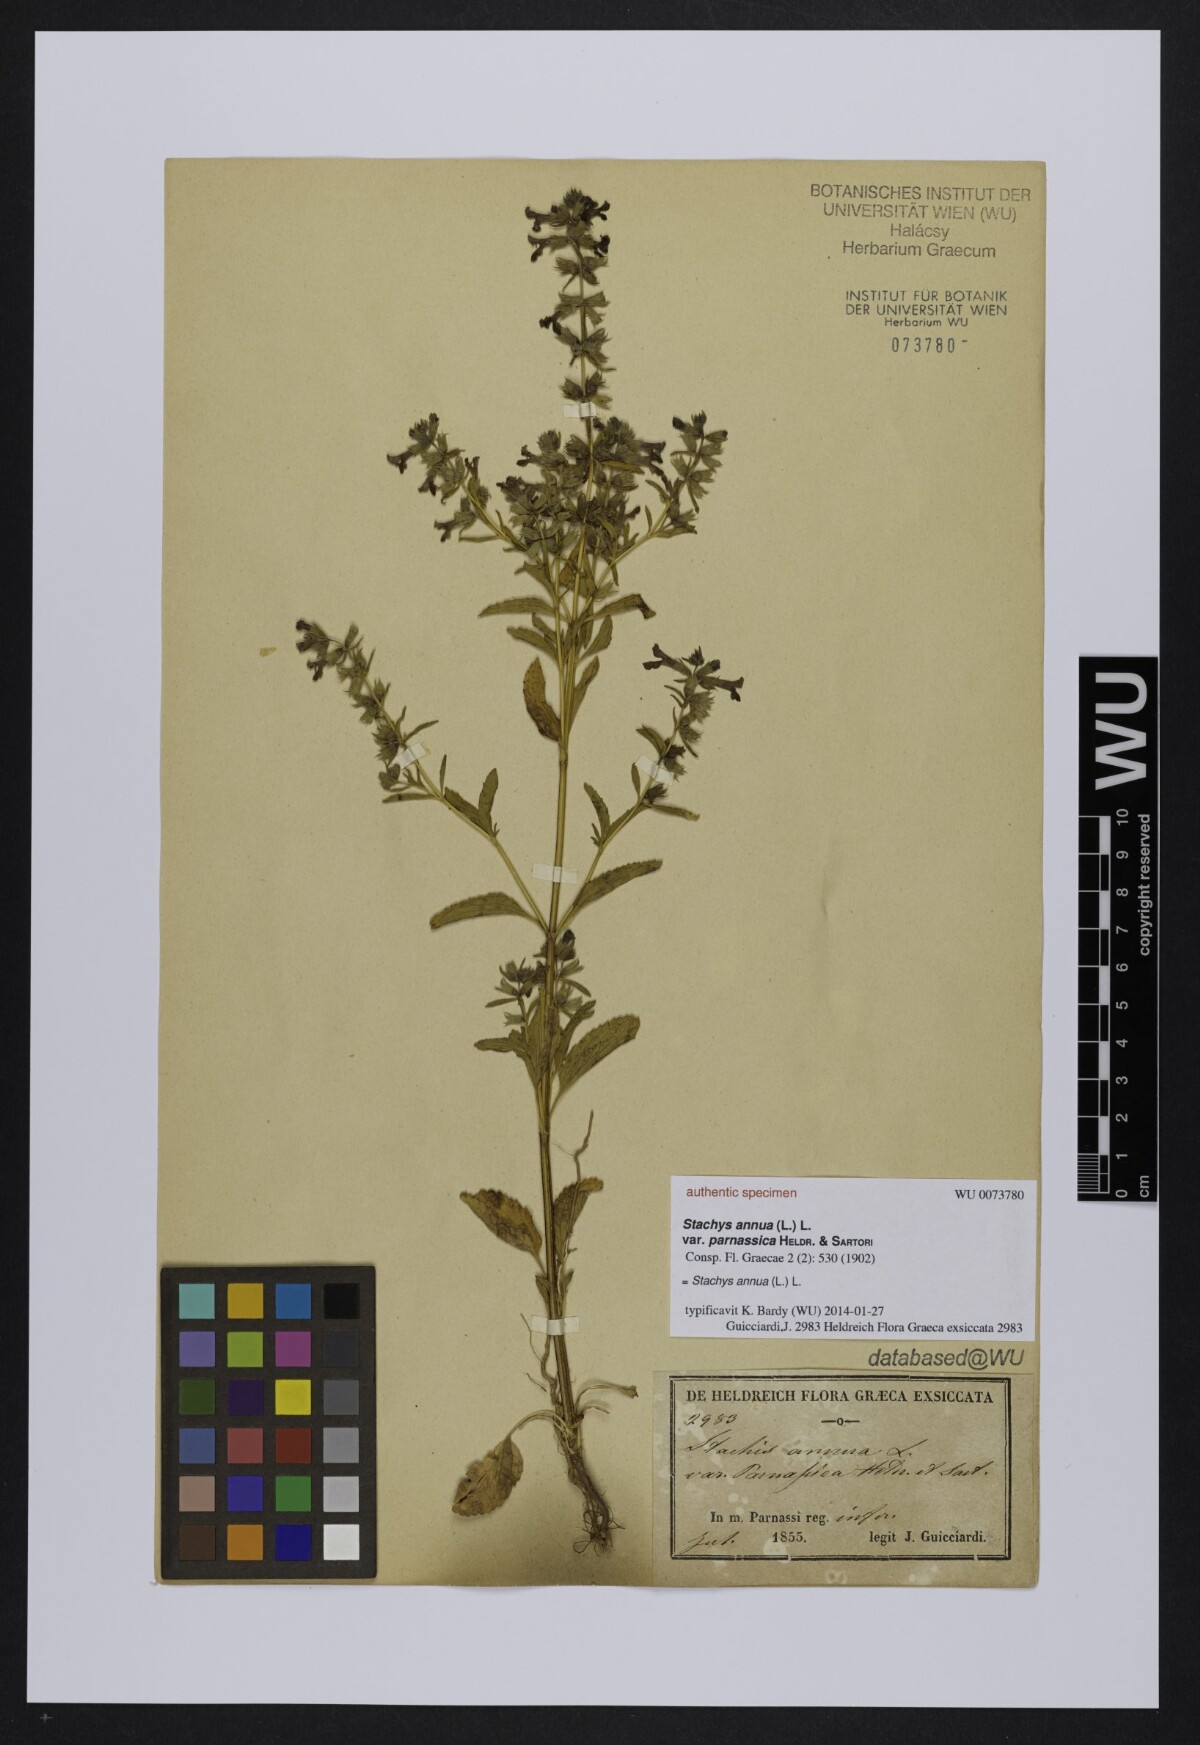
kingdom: Plantae
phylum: Tracheophyta
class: Magnoliopsida
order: Lamiales
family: Lamiaceae
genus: Stachys
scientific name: Stachys annua
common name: Annual yellow-woundwort
